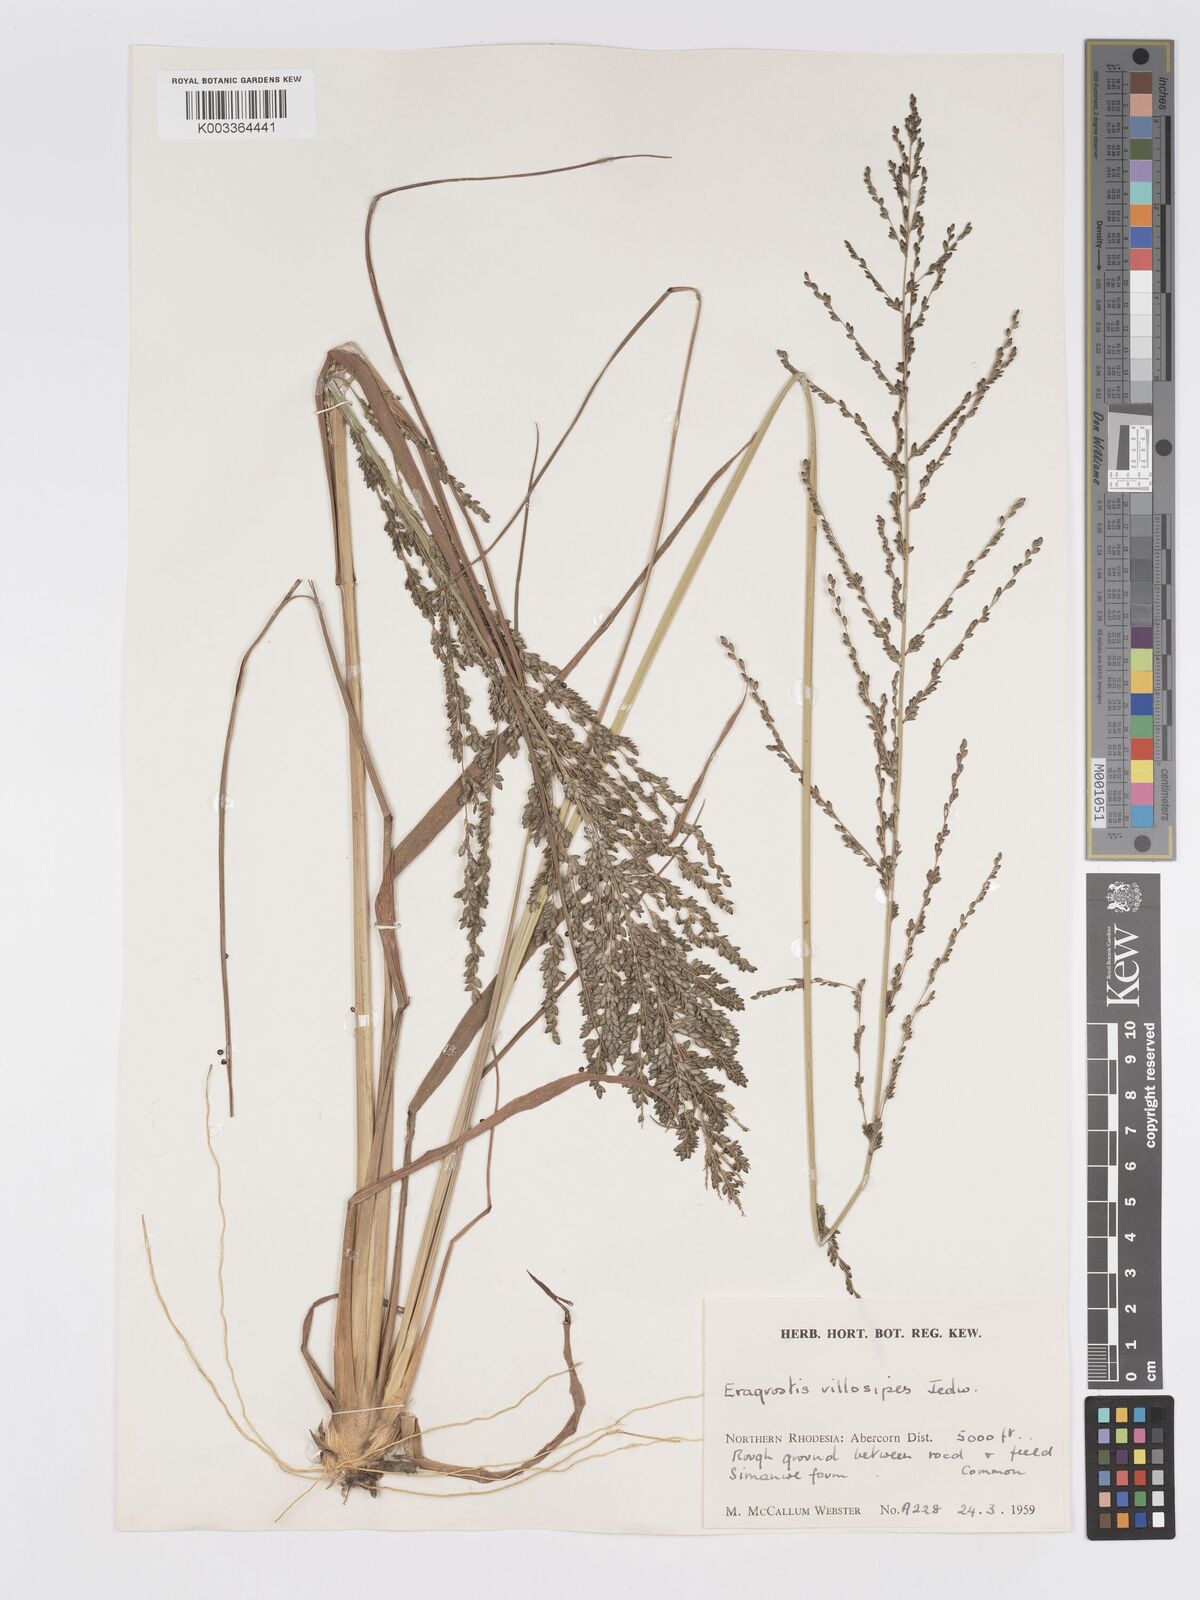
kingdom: Plantae
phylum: Tracheophyta
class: Liliopsida
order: Poales
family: Poaceae
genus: Eragrostis
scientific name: Eragrostis sclerantha
